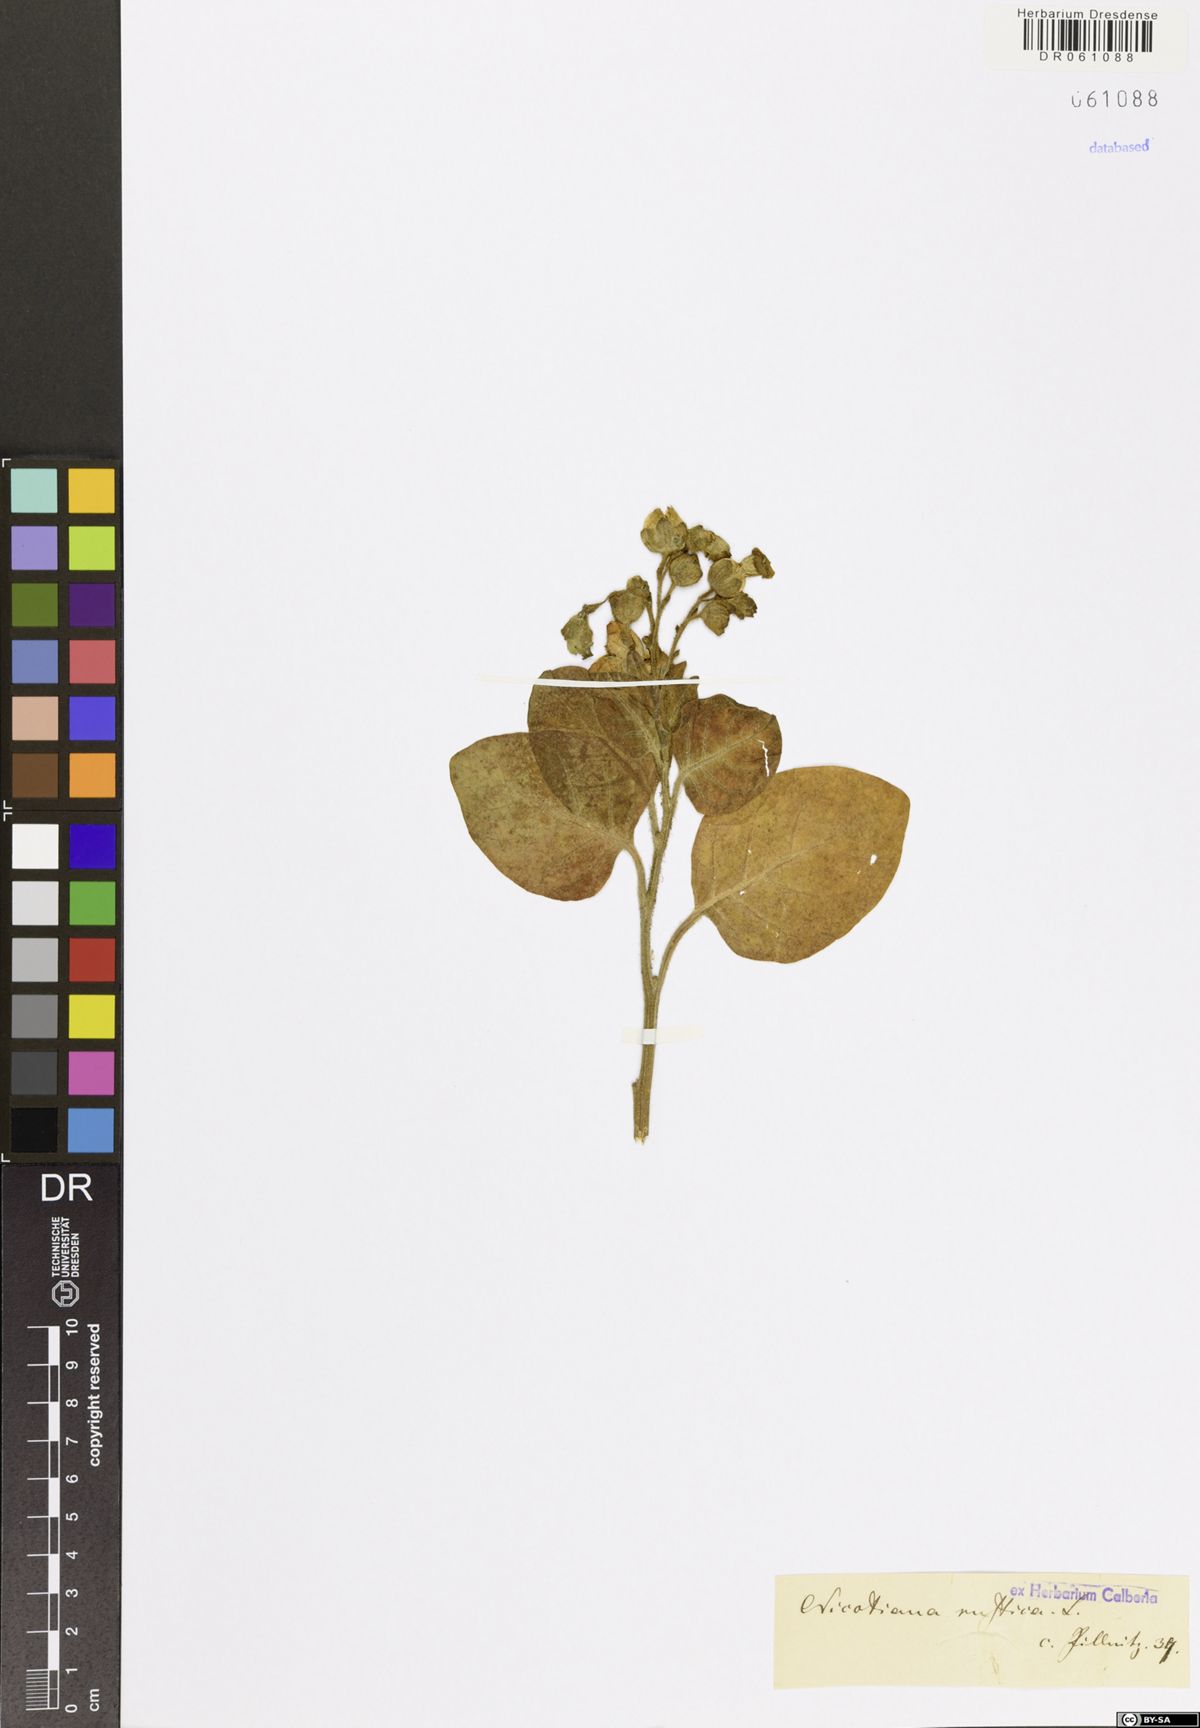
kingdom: Plantae
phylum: Tracheophyta
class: Magnoliopsida
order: Solanales
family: Solanaceae
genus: Nicotiana
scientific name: Nicotiana rustica
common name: Wild tobacco
